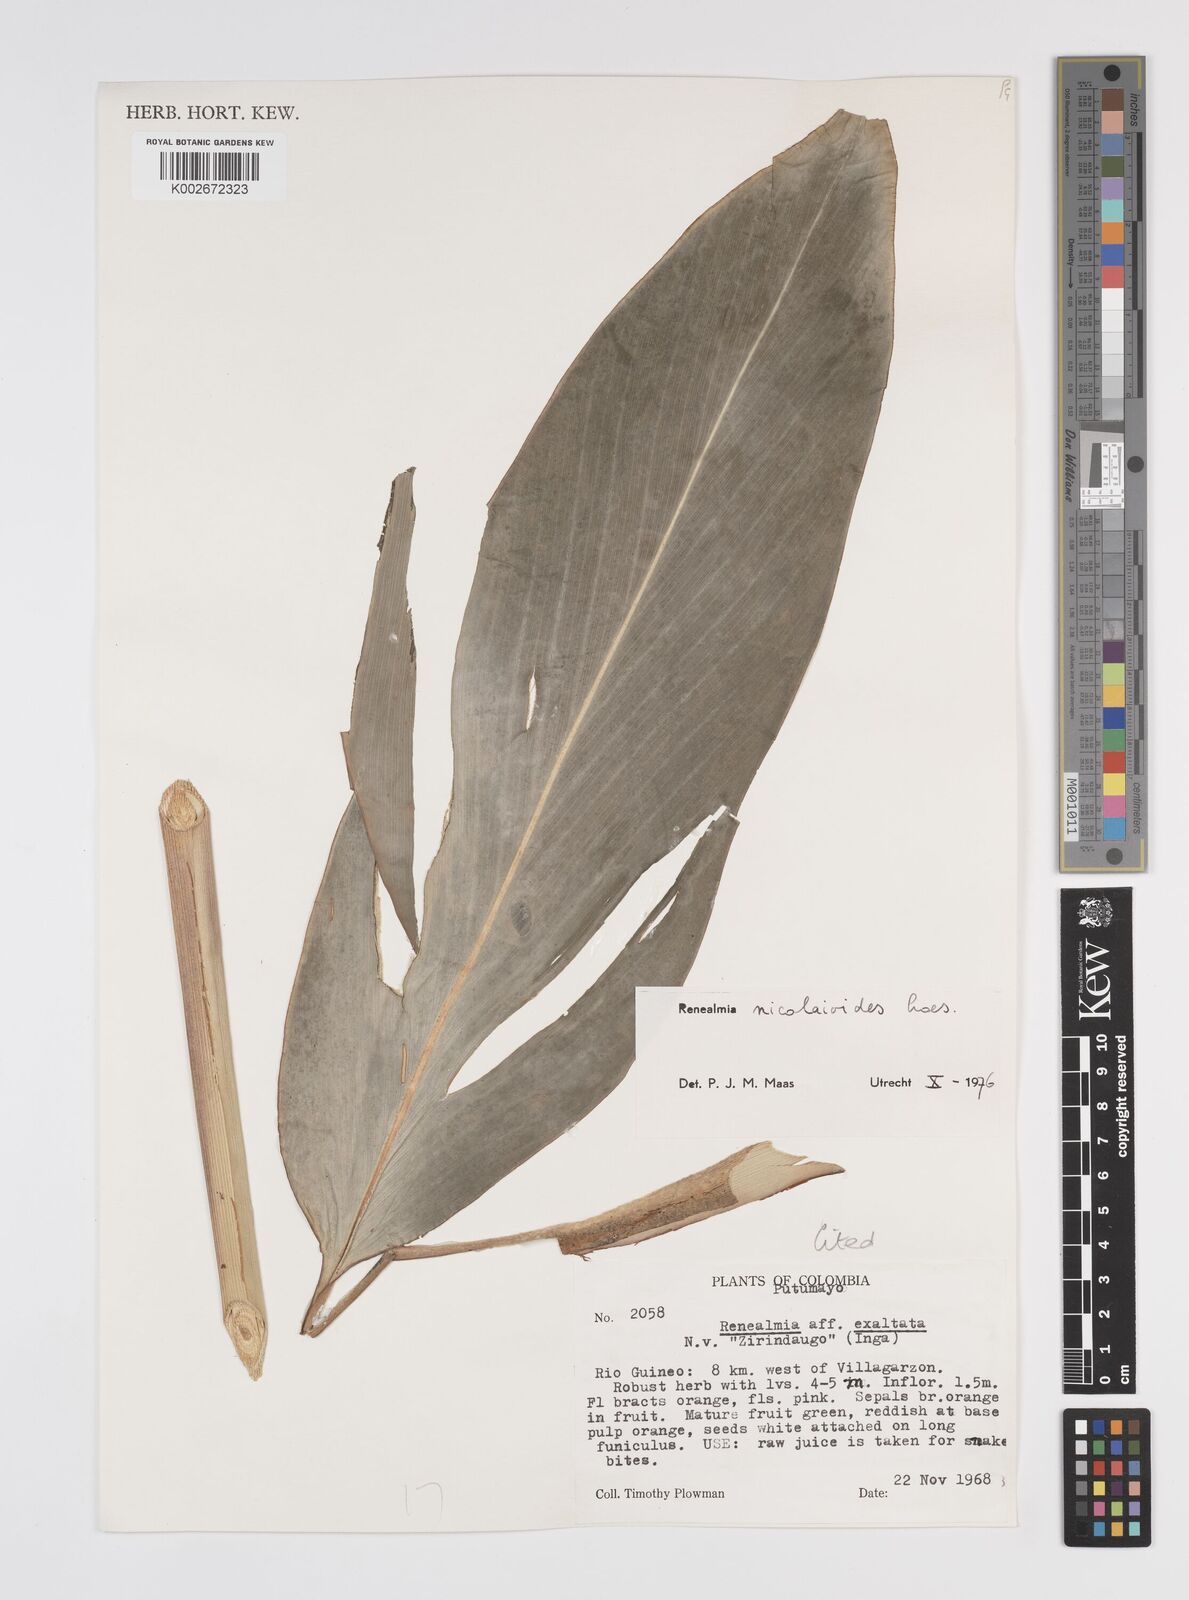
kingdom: Plantae
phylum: Tracheophyta
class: Liliopsida
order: Zingiberales
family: Zingiberaceae
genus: Renealmia
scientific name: Renealmia nicolaioides
